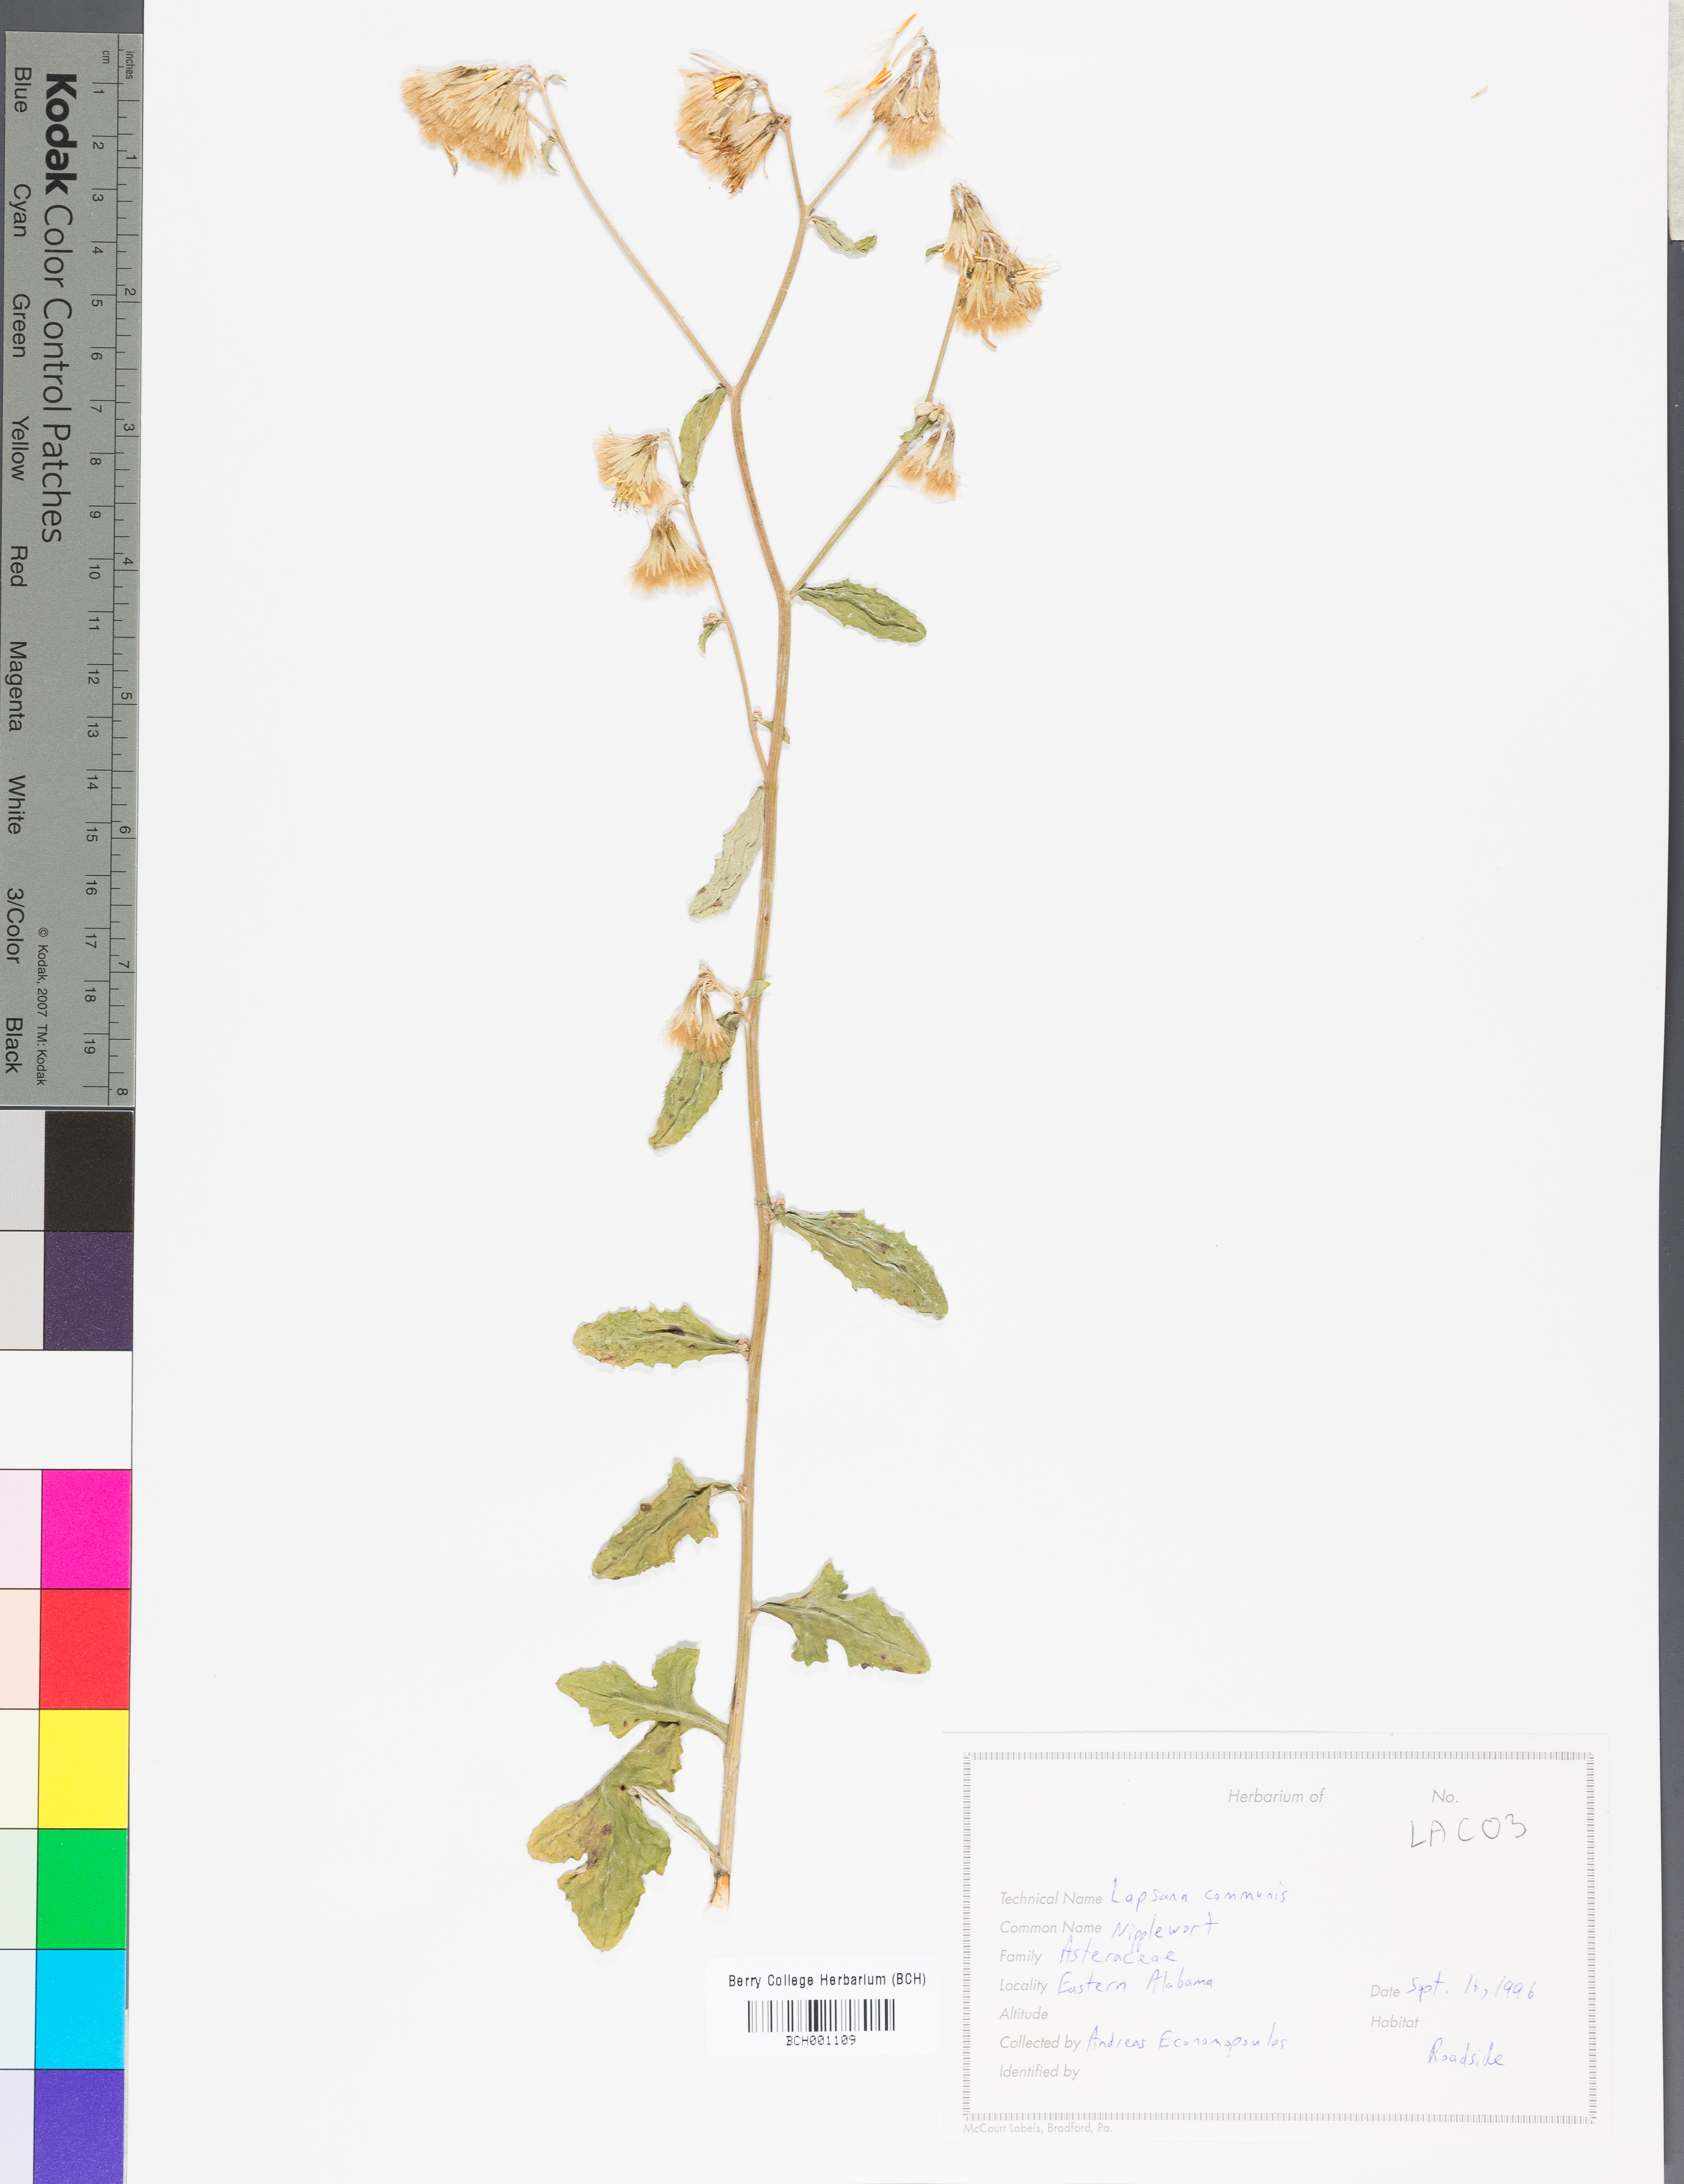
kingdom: Plantae
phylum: Tracheophyta
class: Magnoliopsida
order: Asterales
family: Asteraceae
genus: Lapsana
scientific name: Lapsana communis
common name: Nipplewort
